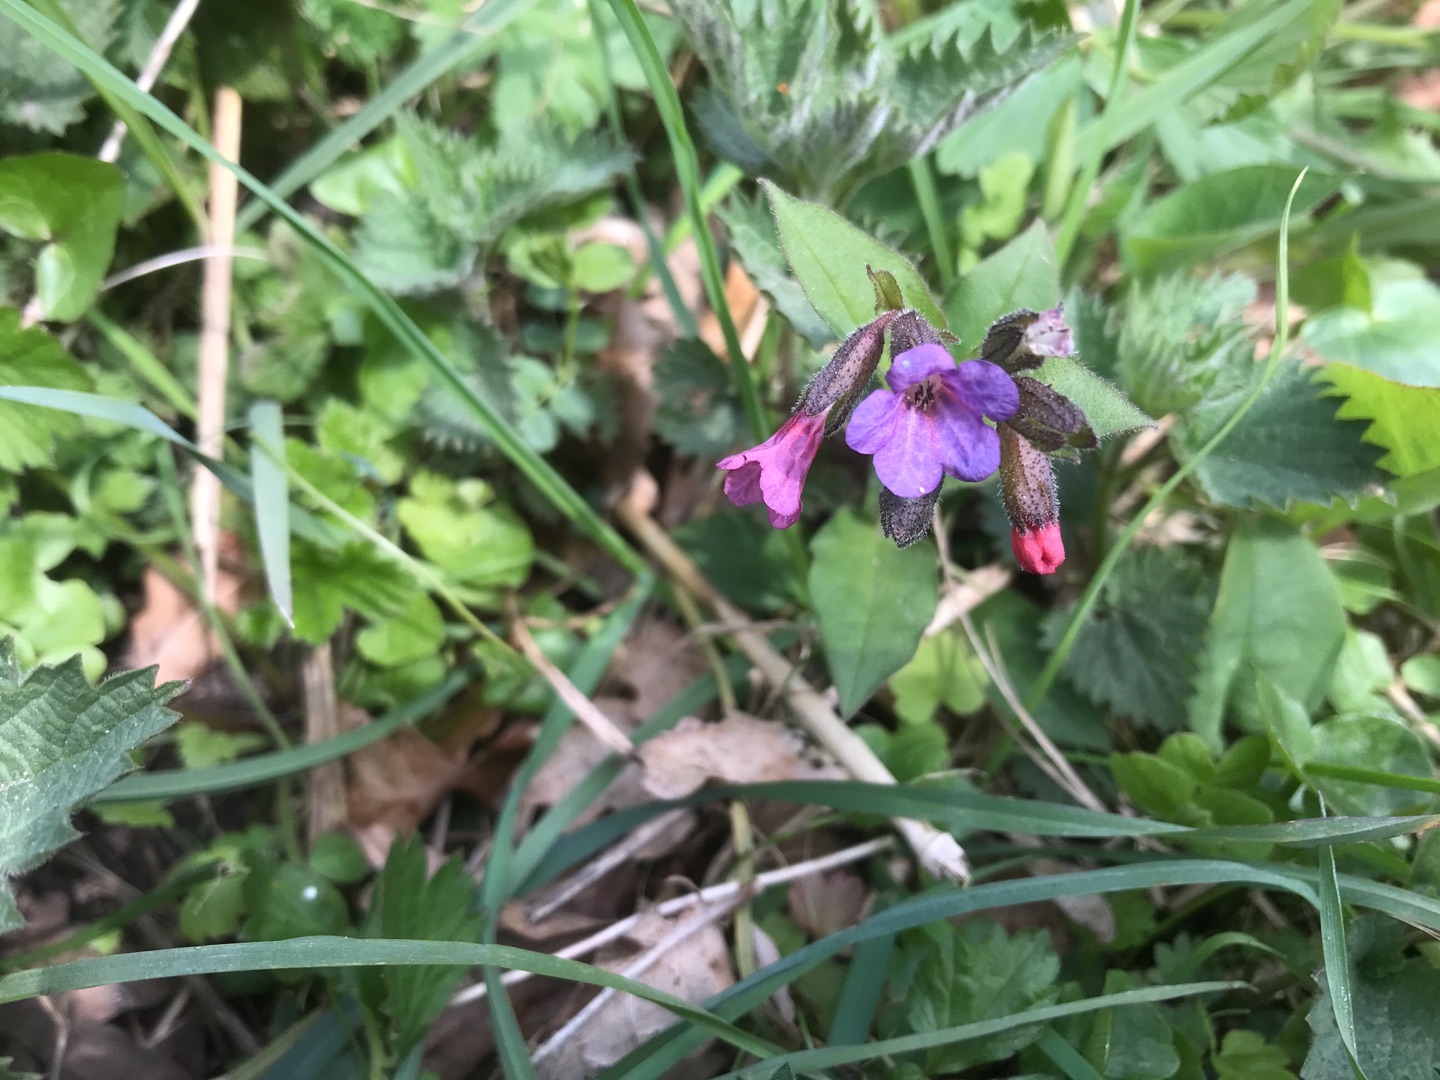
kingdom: Plantae
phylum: Tracheophyta
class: Magnoliopsida
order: Boraginales
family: Boraginaceae
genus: Pulmonaria
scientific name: Pulmonaria obscura
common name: Almindelig lungeurt
